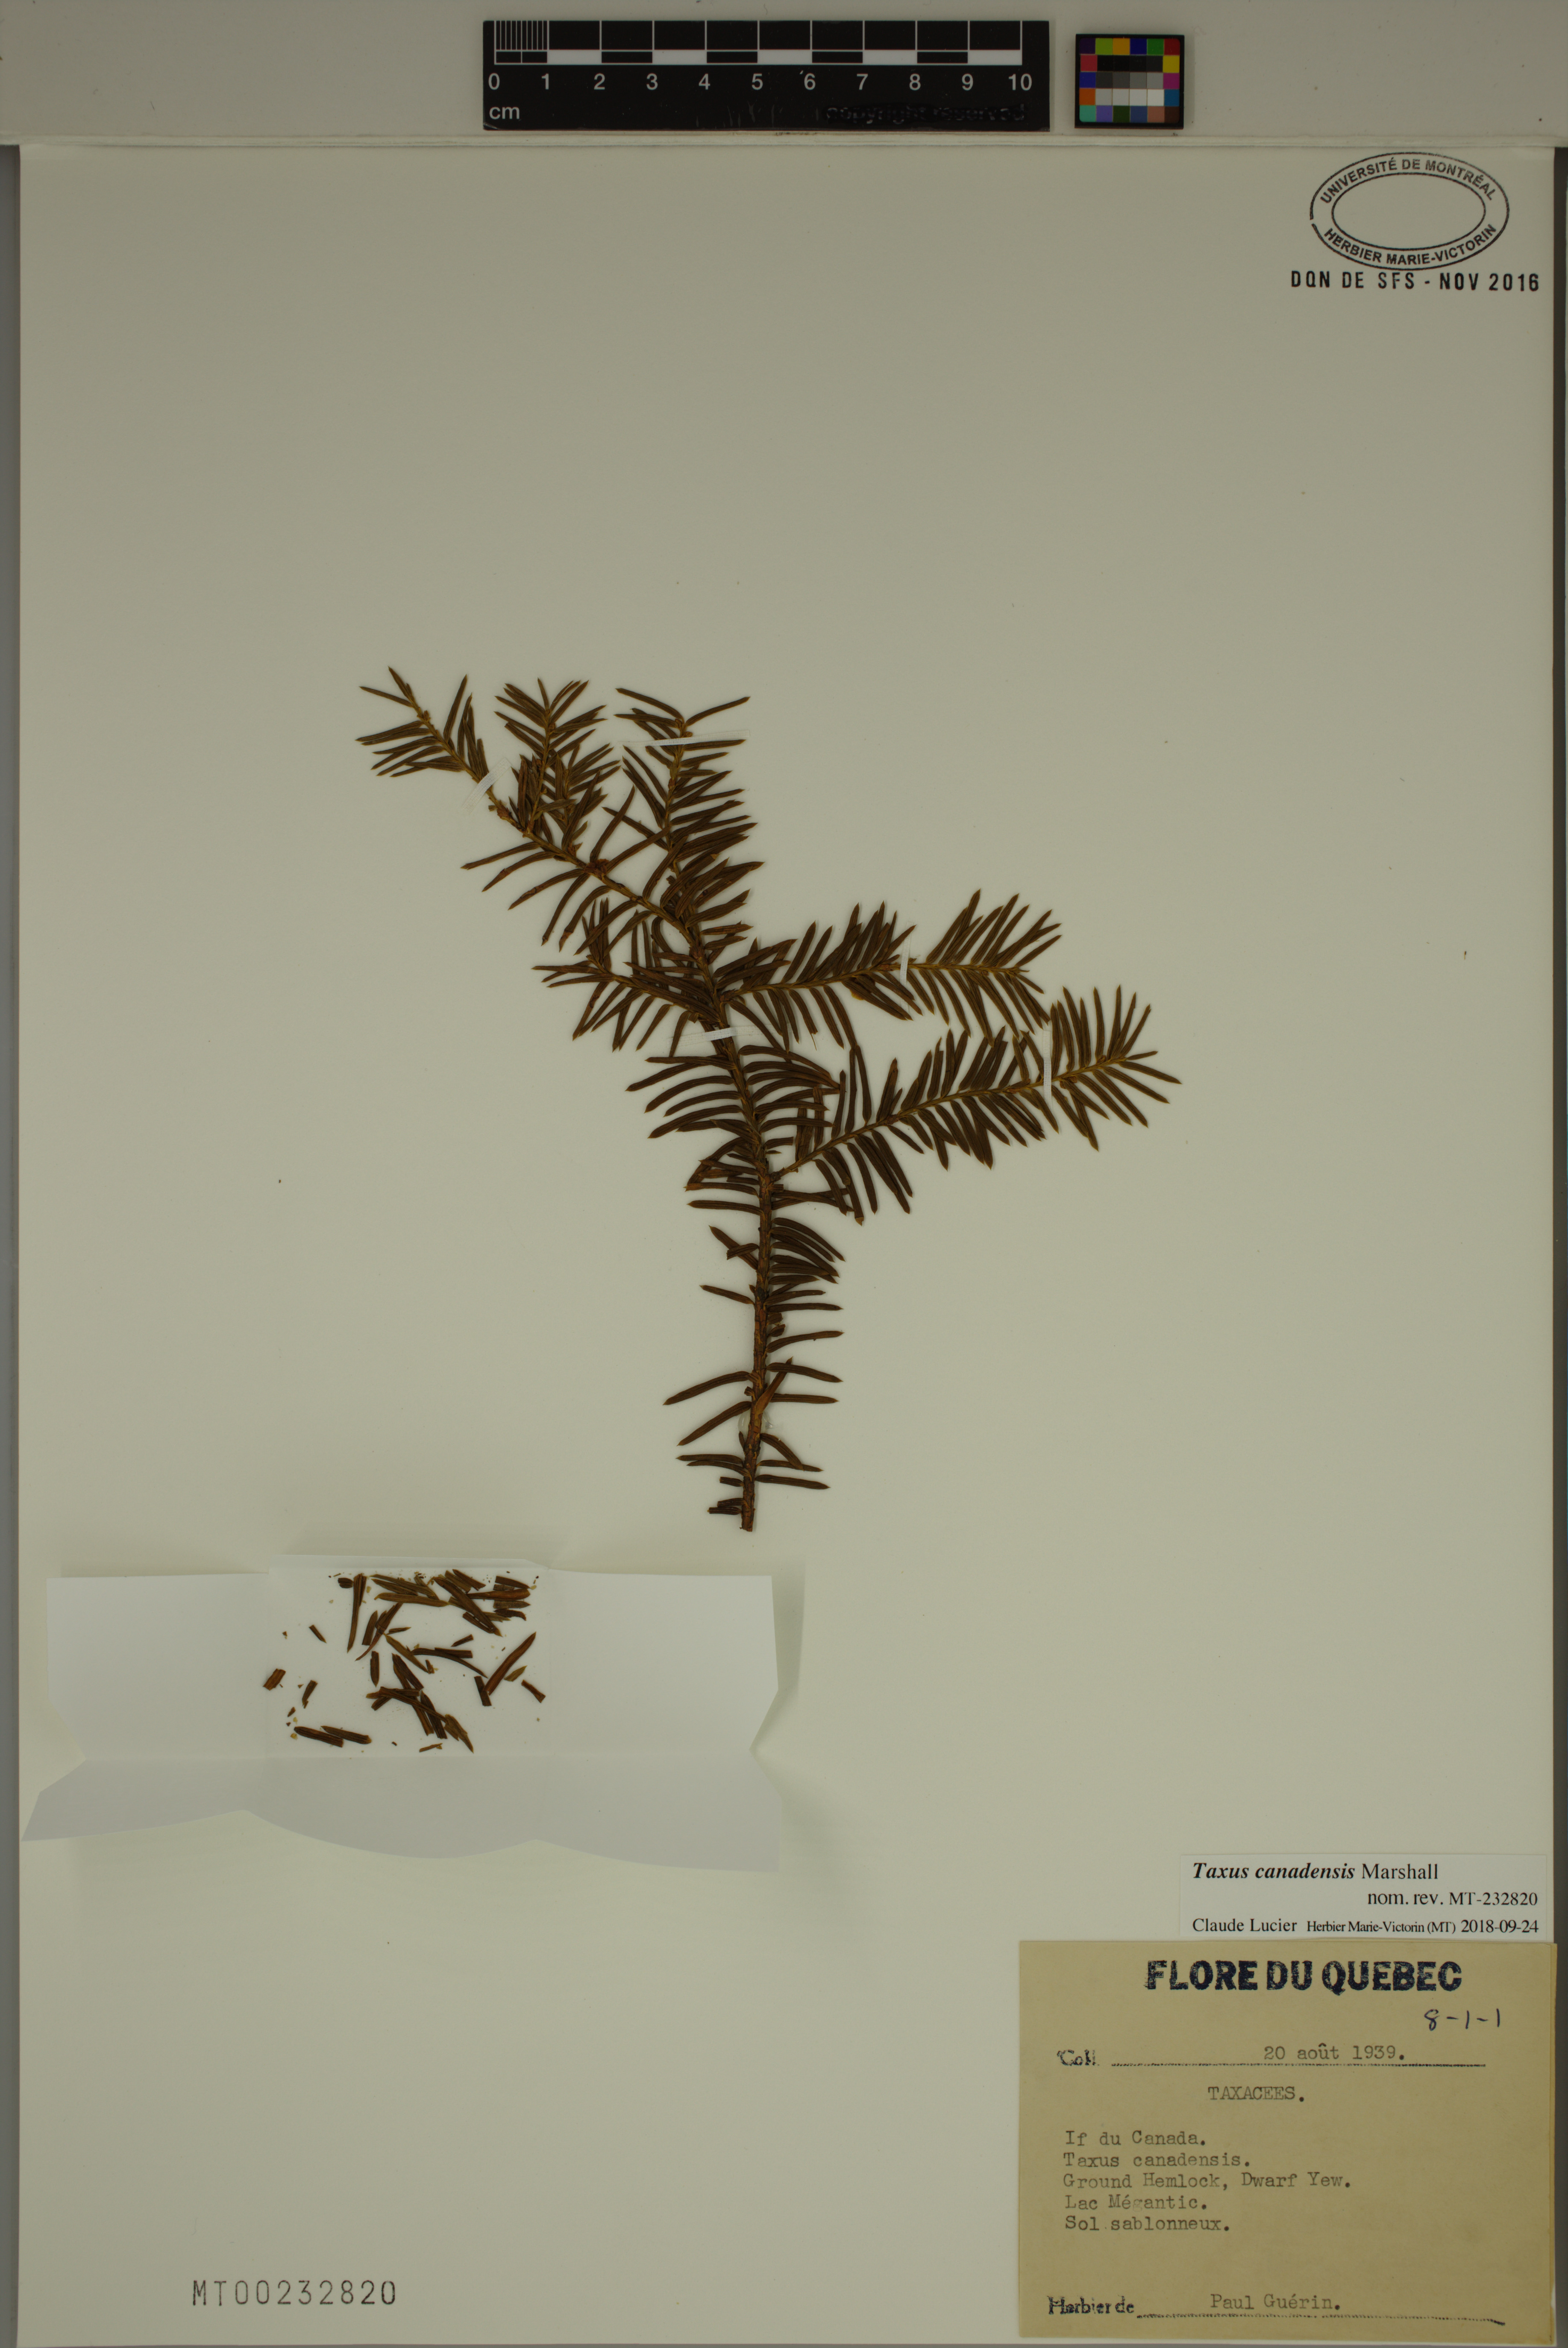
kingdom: Plantae
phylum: Tracheophyta
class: Pinopsida
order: Pinales
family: Taxaceae
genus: Taxus
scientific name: Taxus canadensis
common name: American yew
